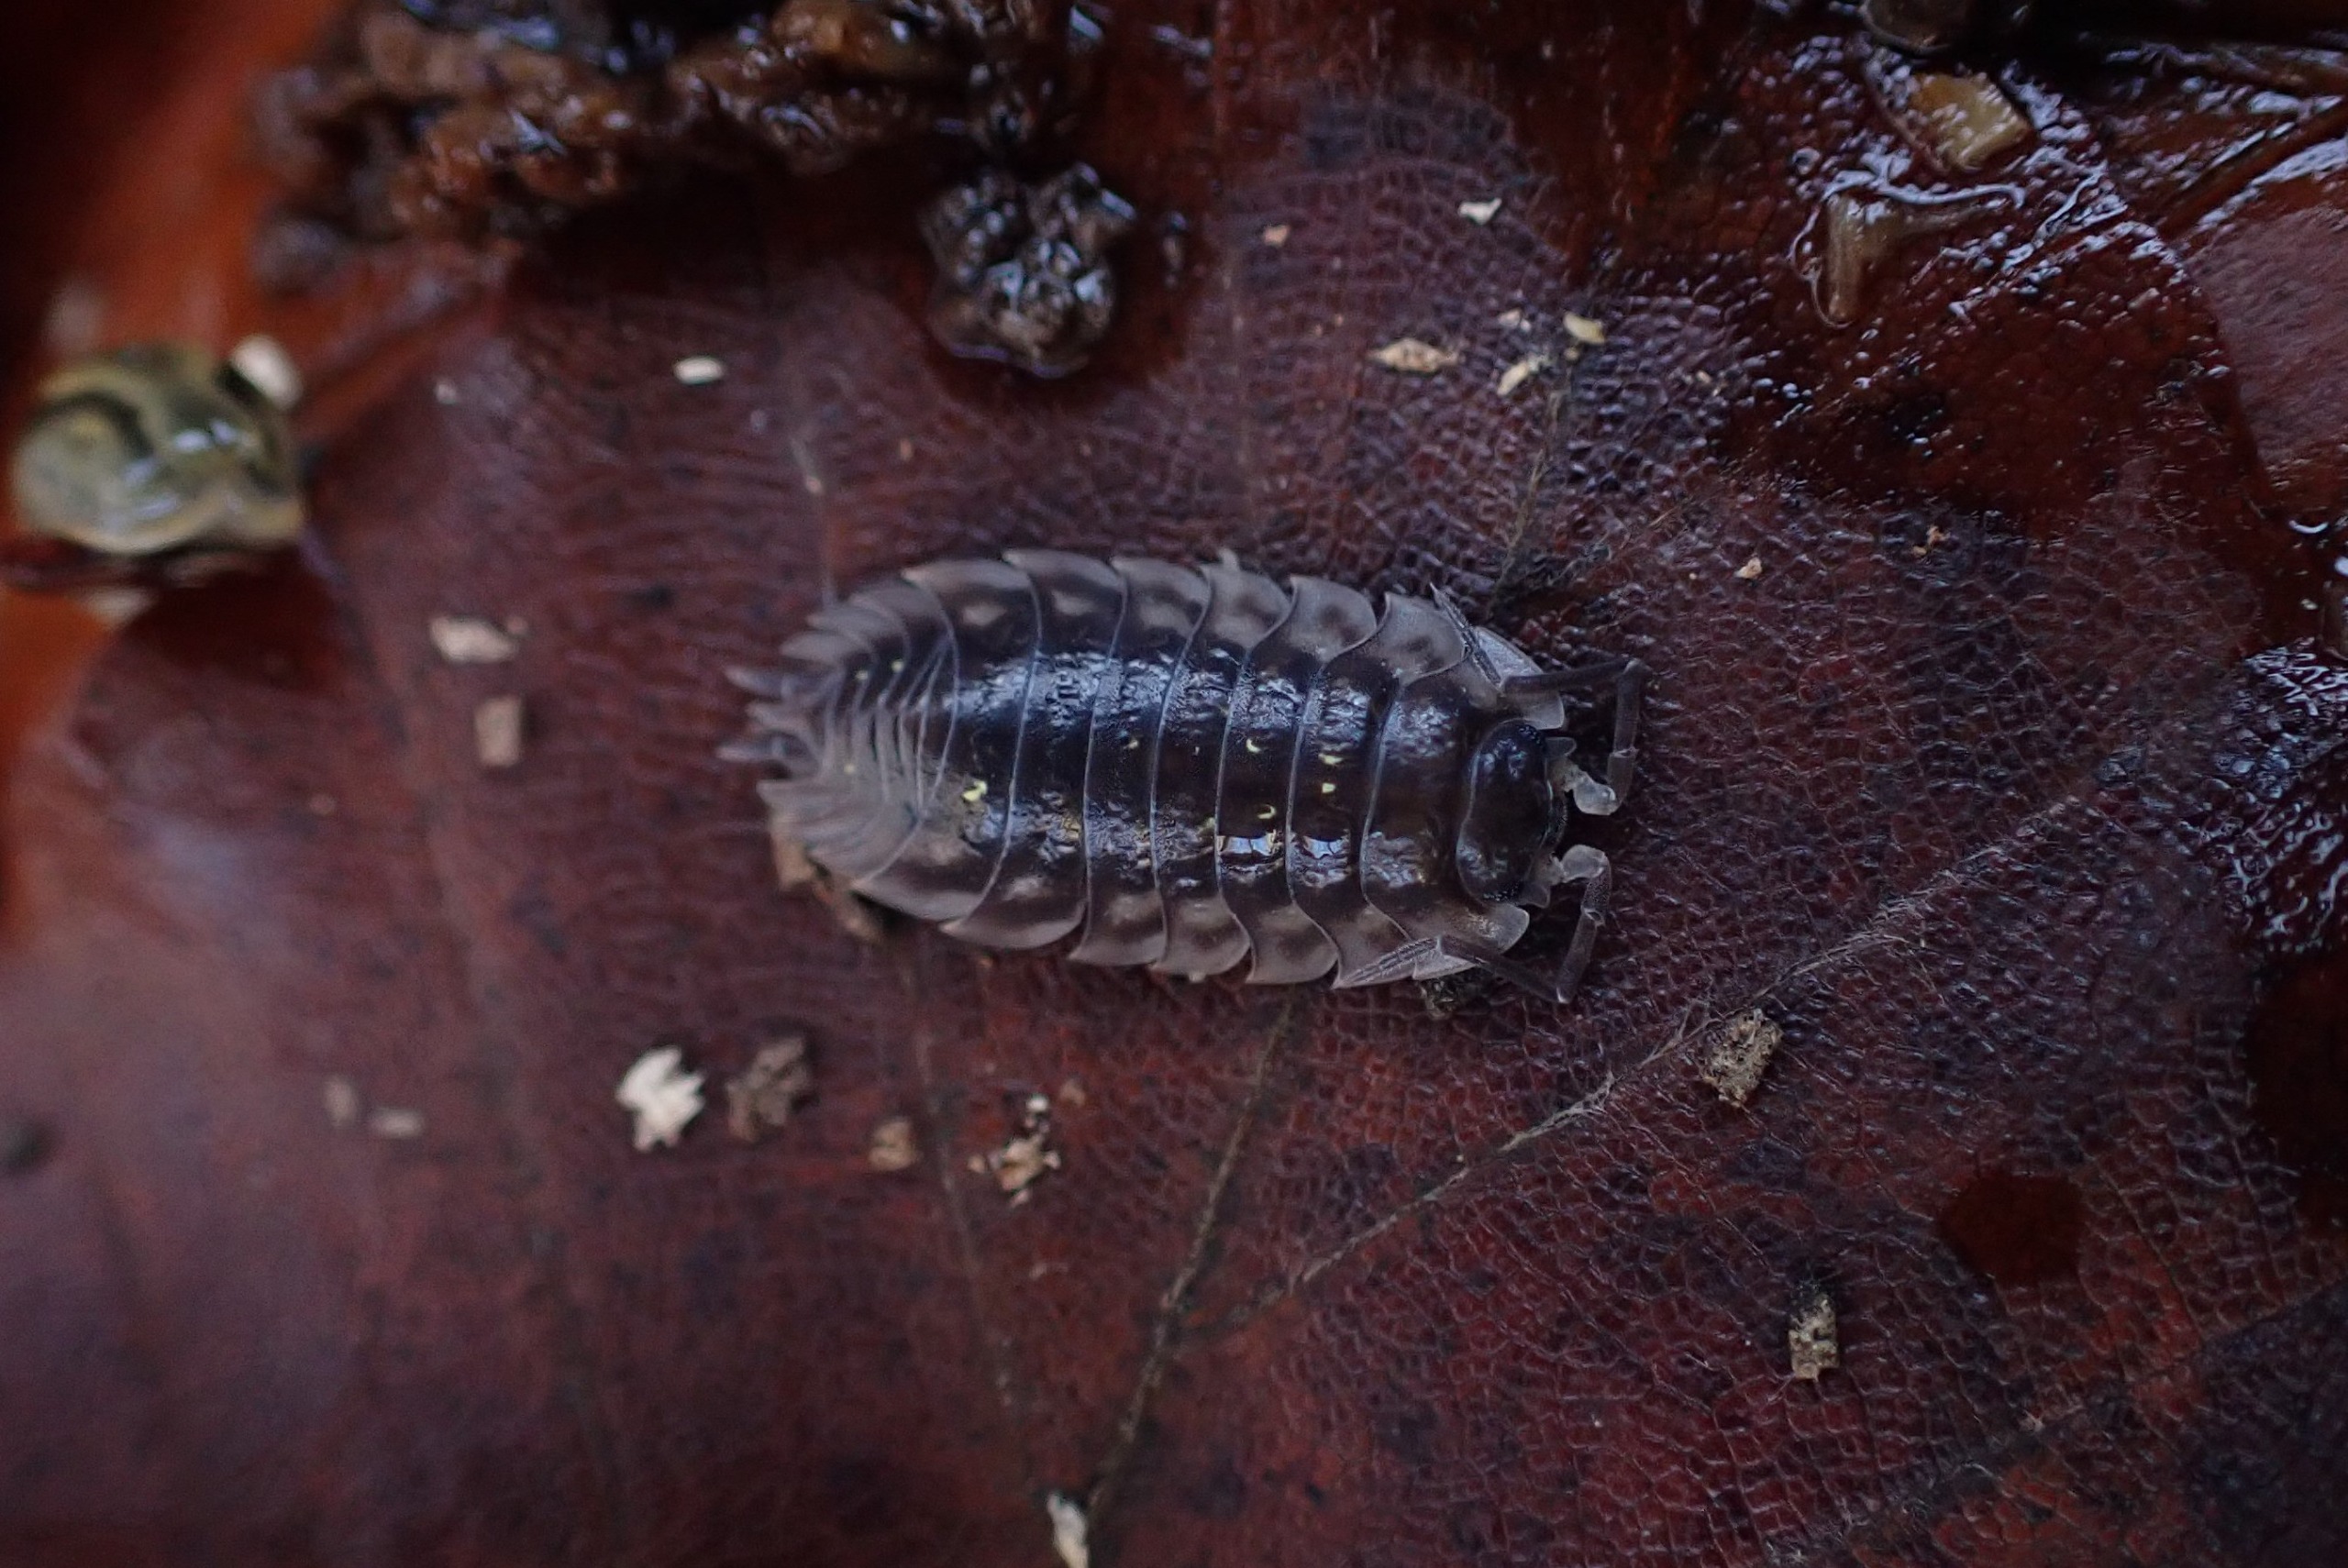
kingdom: Animalia
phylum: Arthropoda
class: Malacostraca
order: Isopoda
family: Oniscidae
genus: Oniscus
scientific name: Oniscus asellus
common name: Glat bænkebider
